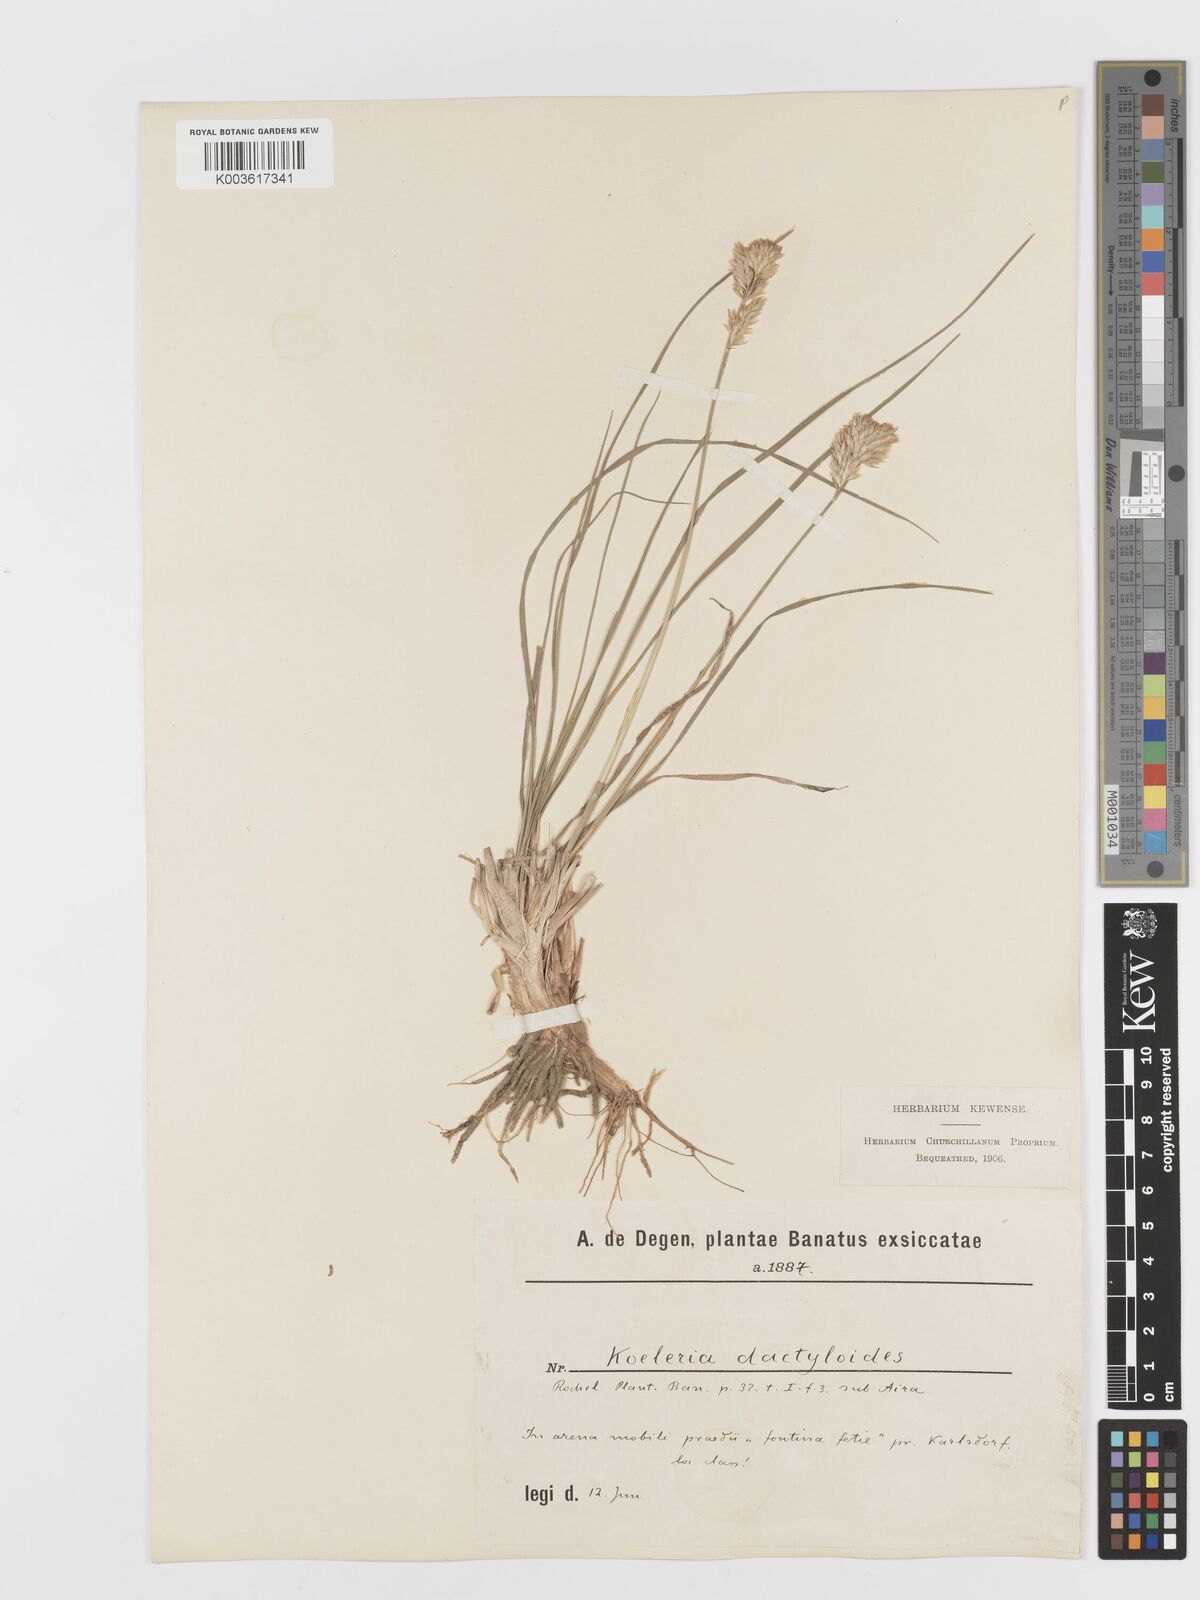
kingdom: Plantae
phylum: Tracheophyta
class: Liliopsida
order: Poales
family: Poaceae
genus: Koeleria
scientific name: Koeleria glauca
